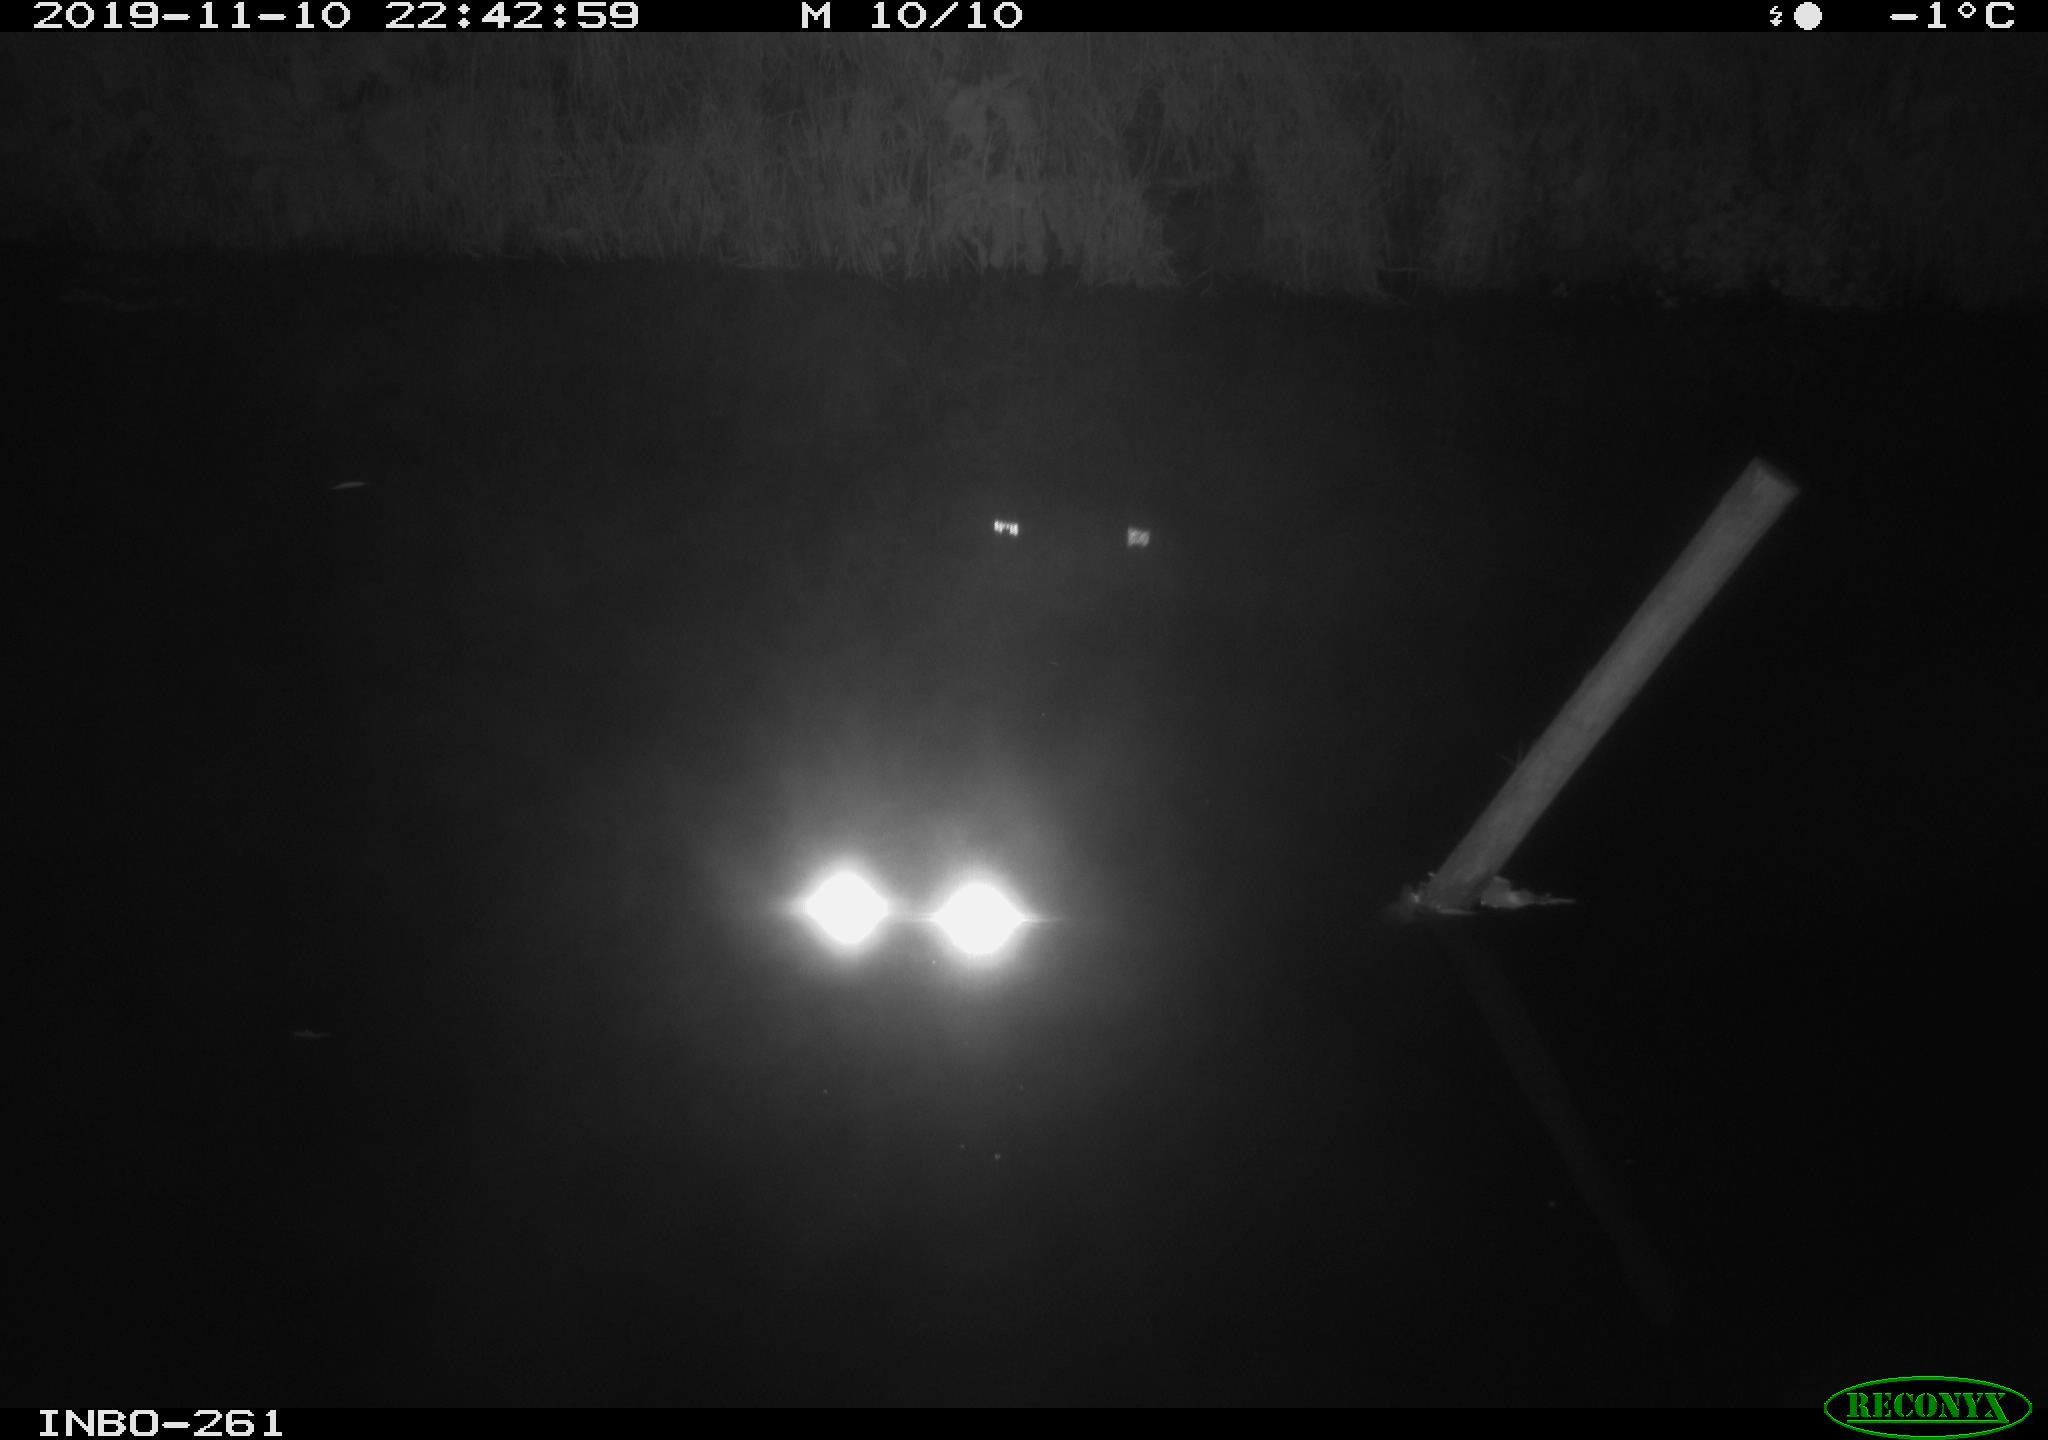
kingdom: Animalia
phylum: Chordata
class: Aves
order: Anseriformes
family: Anatidae
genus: Anas
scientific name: Anas platyrhynchos
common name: Mallard
